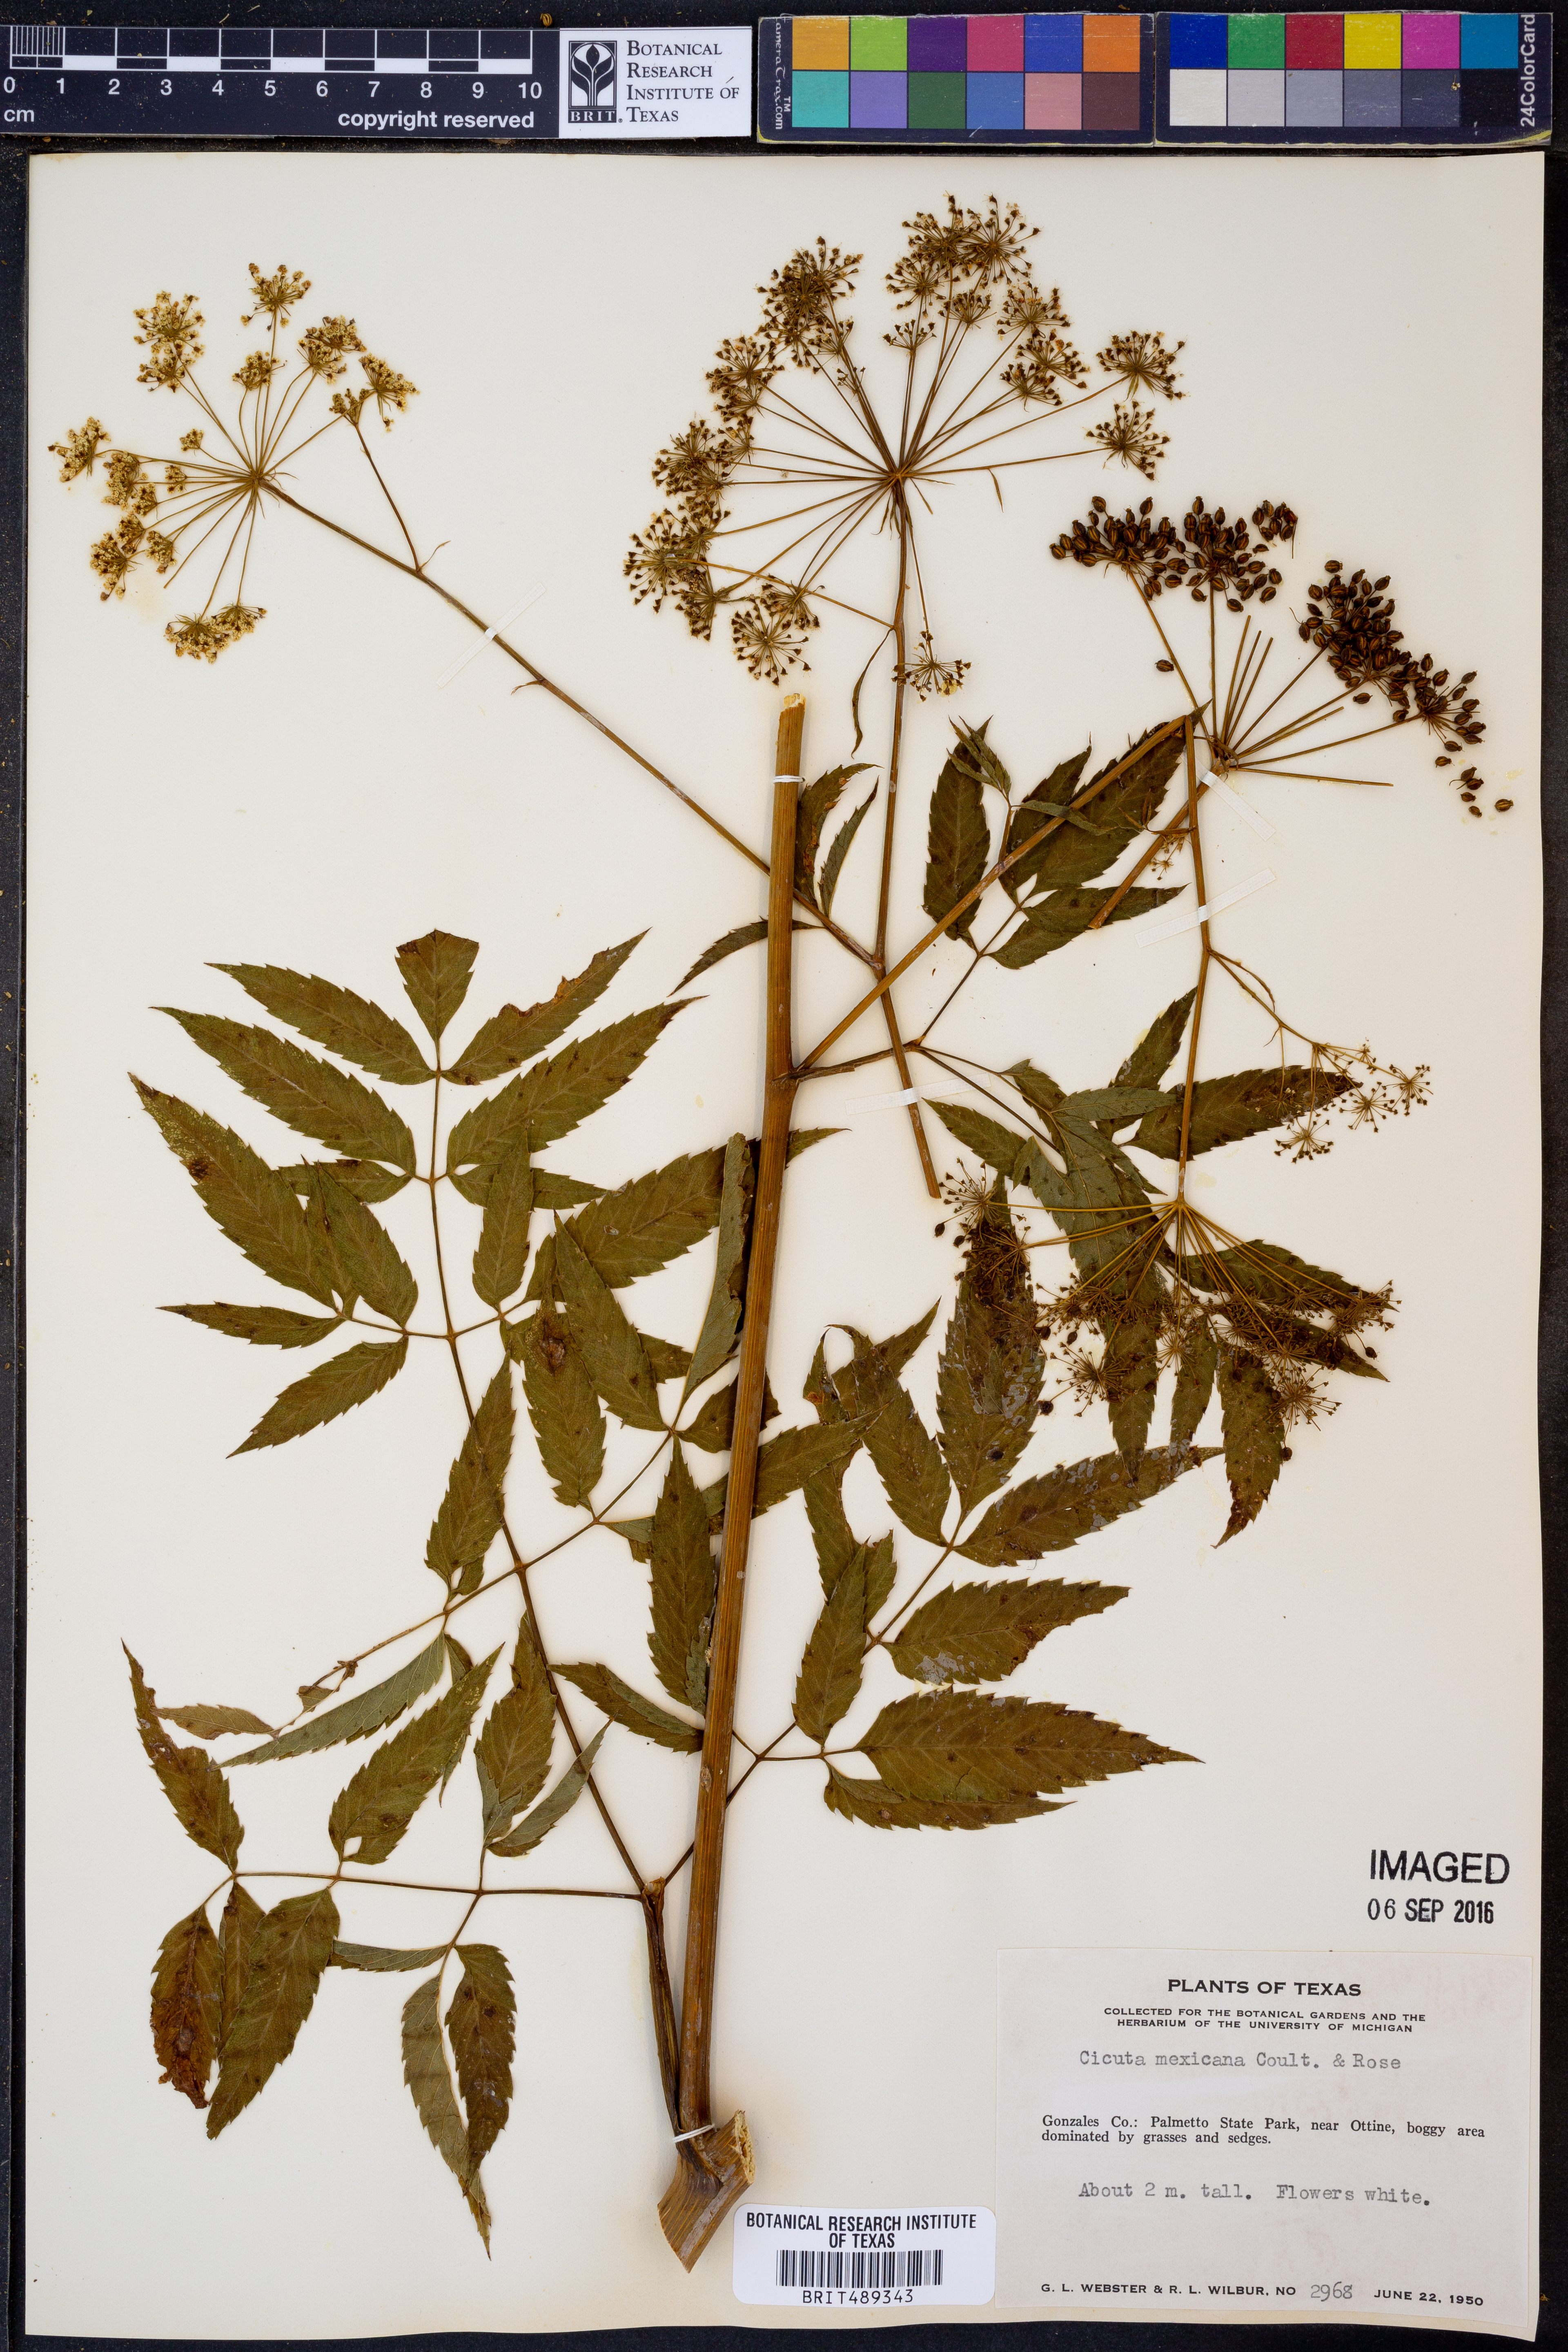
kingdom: Plantae
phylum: Tracheophyta
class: Magnoliopsida
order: Apiales
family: Apiaceae
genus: Cicuta
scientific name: Cicuta douglasii
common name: Western water-hemlock
